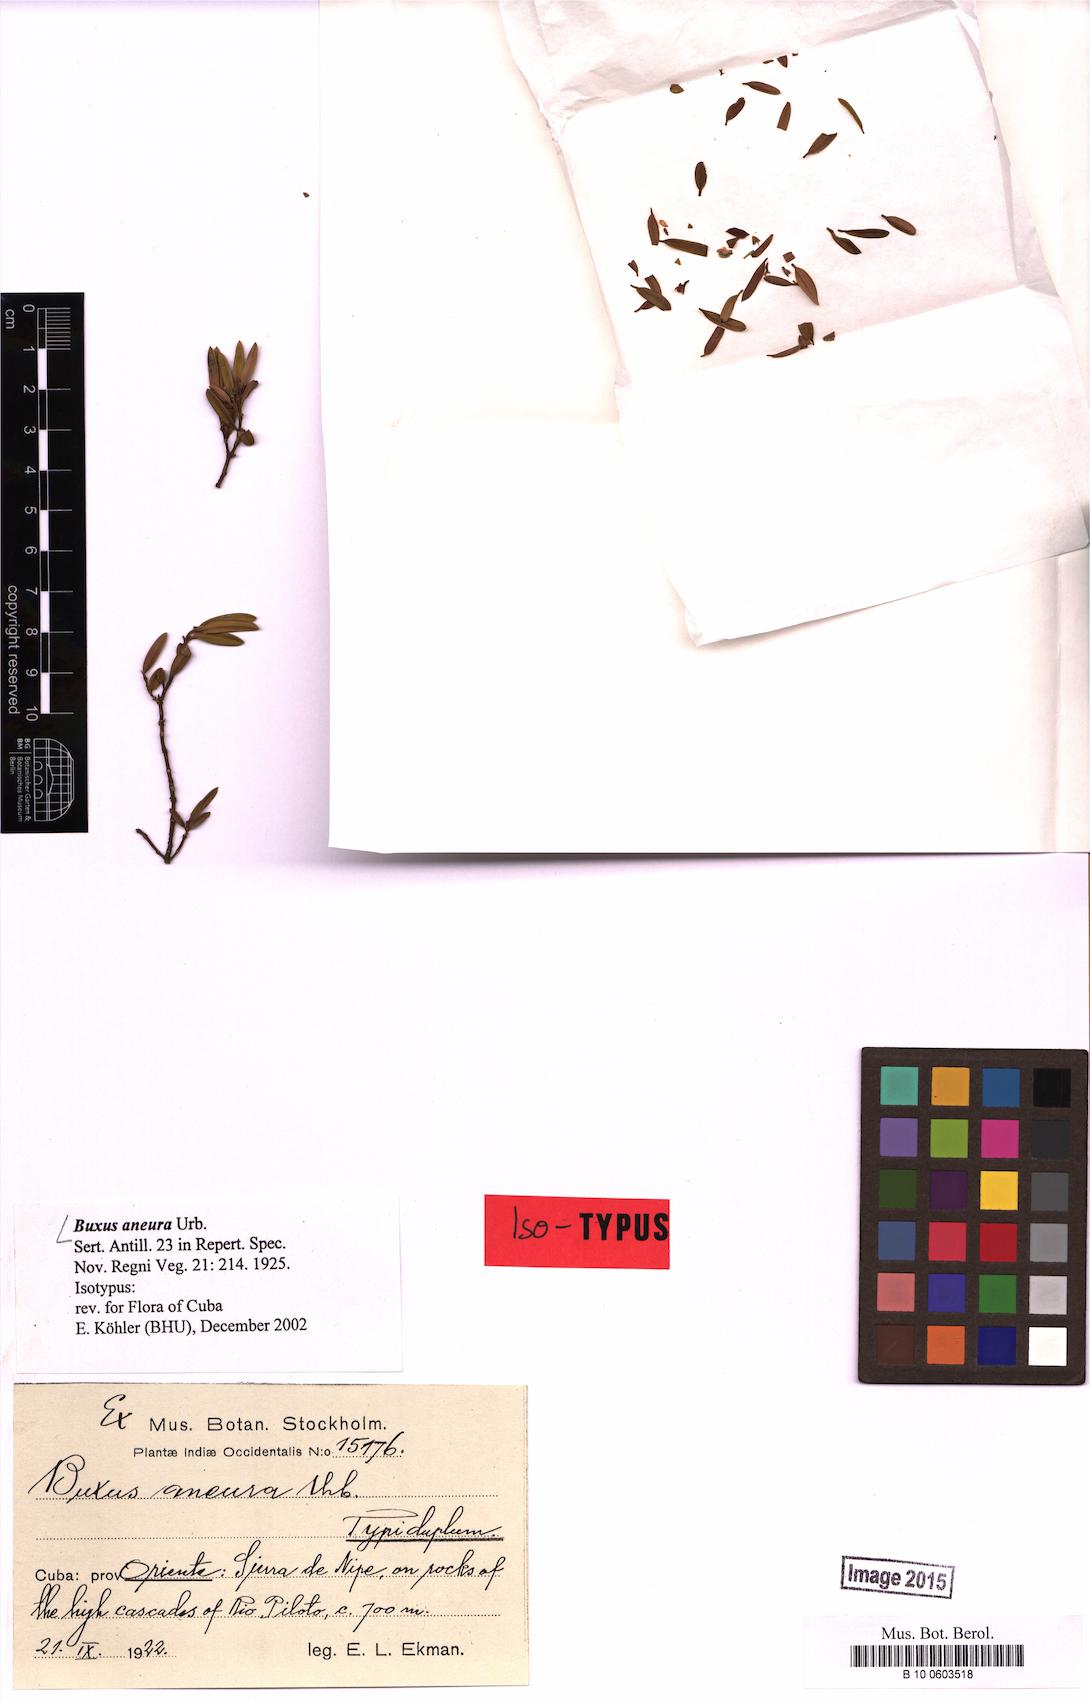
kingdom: Plantae
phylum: Tracheophyta
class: Magnoliopsida
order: Buxales
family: Buxaceae
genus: Buxus
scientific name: Buxus aneura
